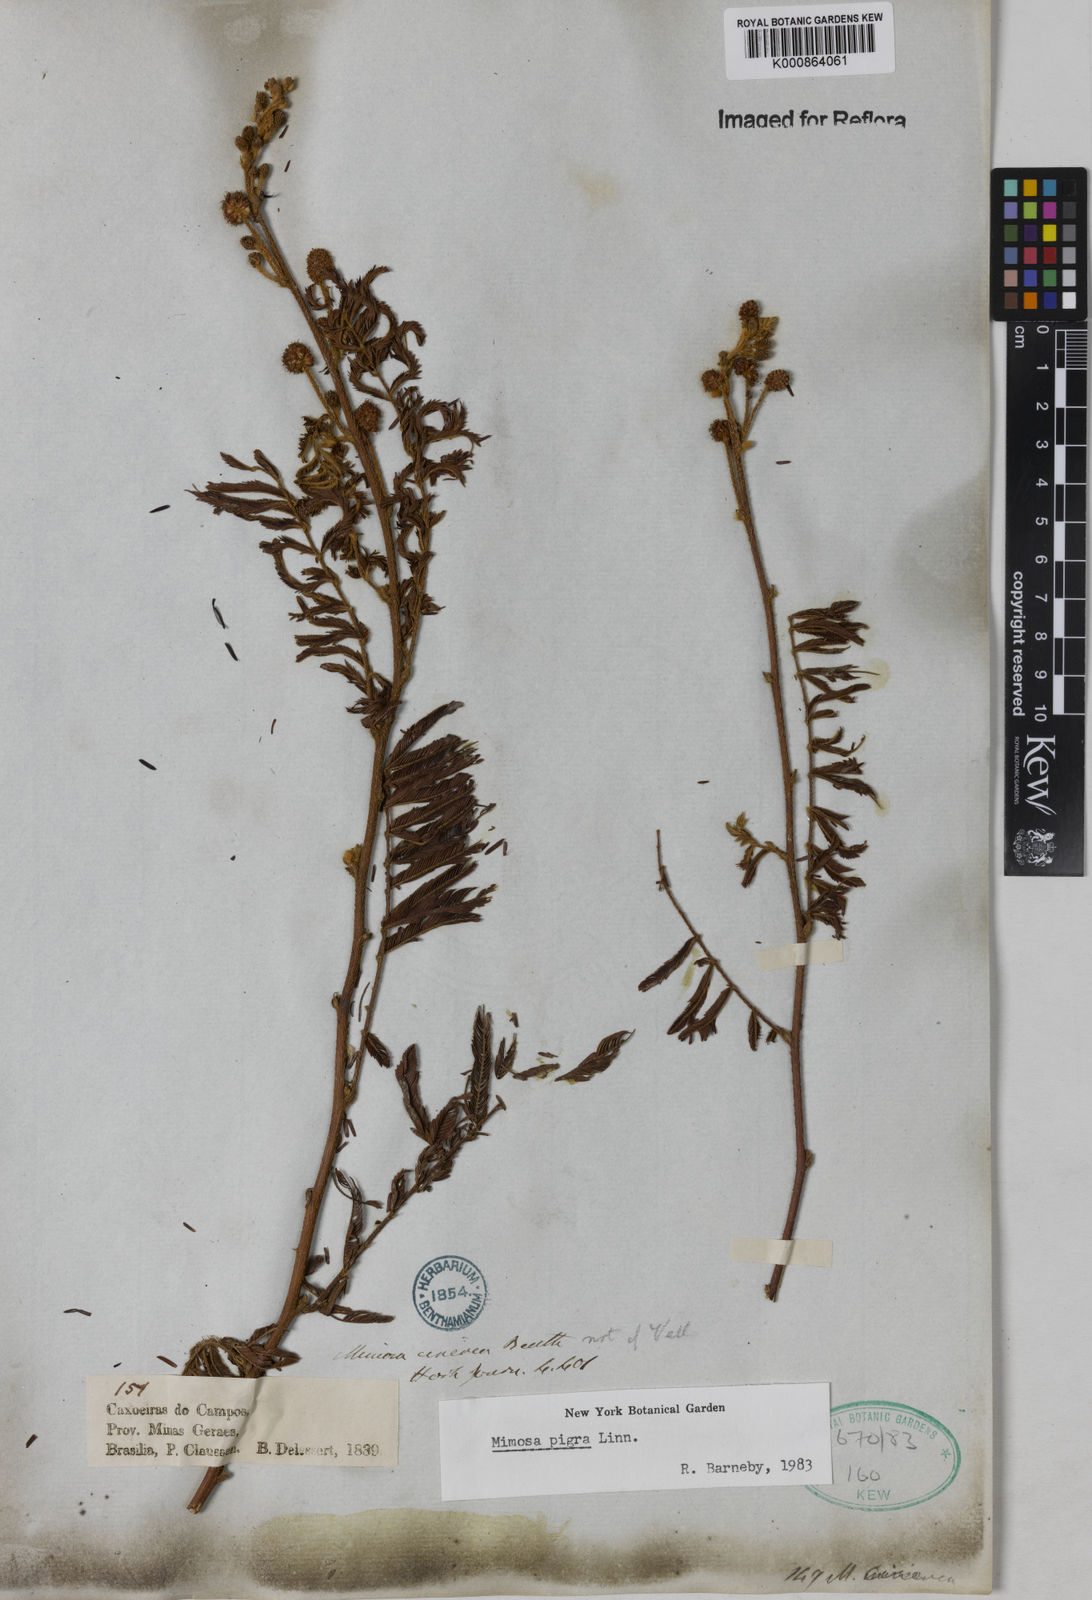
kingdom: Plantae
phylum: Tracheophyta
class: Magnoliopsida
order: Fabales
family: Fabaceae
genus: Mimosa
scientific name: Mimosa pigra
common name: Black mimosa
